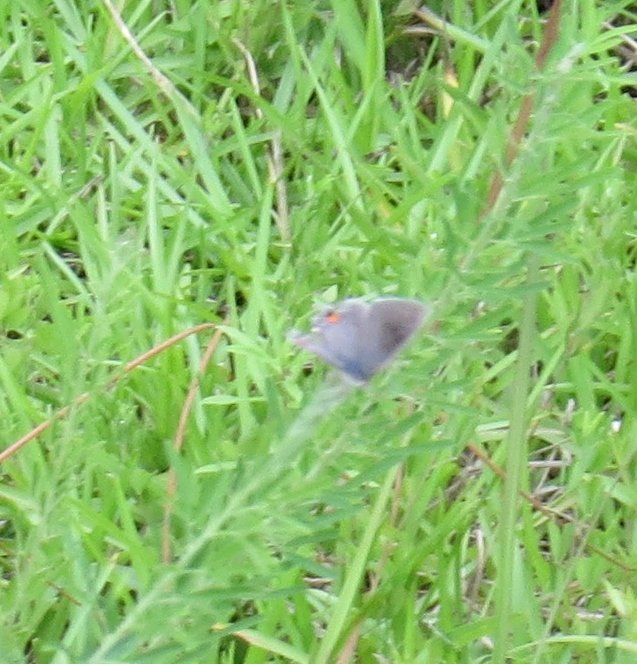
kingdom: Animalia
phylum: Arthropoda
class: Insecta
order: Lepidoptera
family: Lycaenidae
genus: Strymon
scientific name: Strymon melinus
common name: Gray Hairstreak
